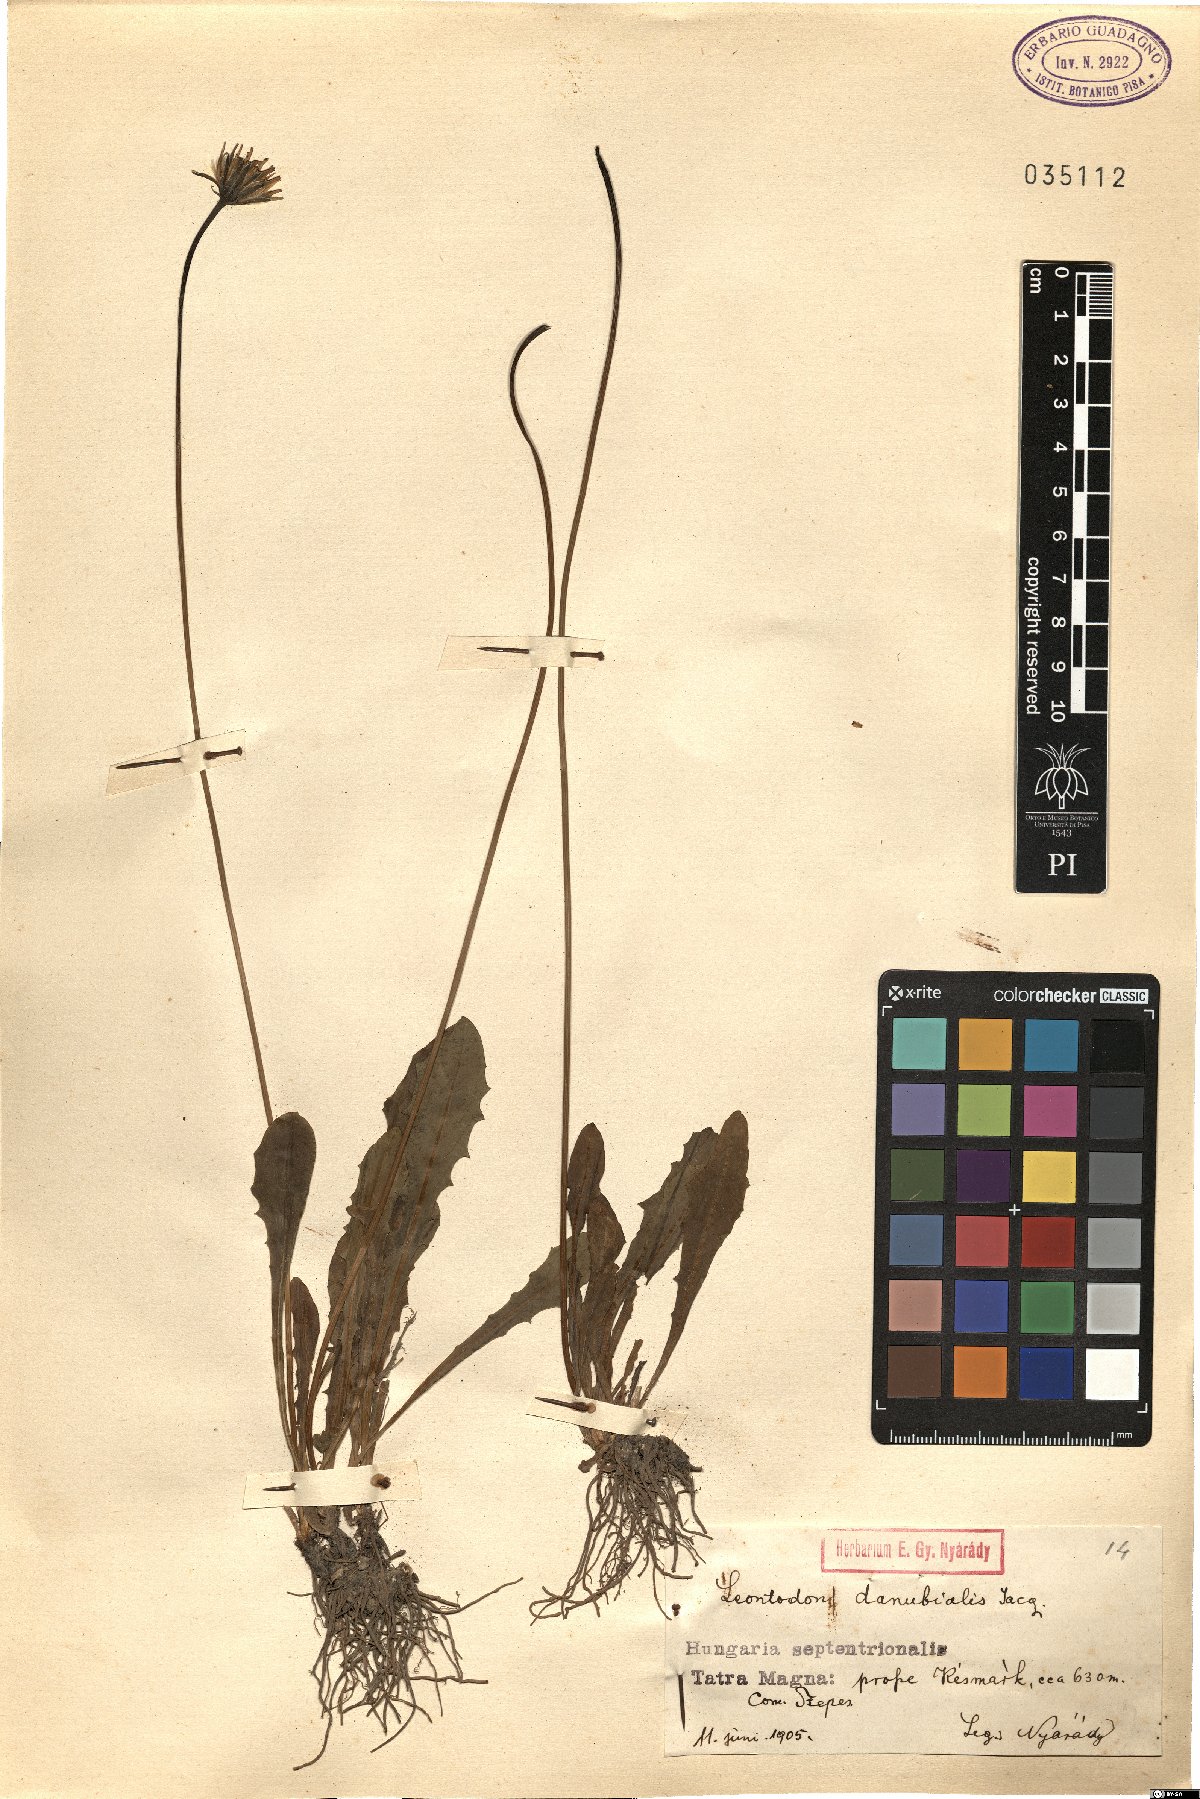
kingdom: Plantae
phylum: Tracheophyta
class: Magnoliopsida
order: Asterales
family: Asteraceae
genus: Leontodon
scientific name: Leontodon hispidus
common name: Rough hawkbit
